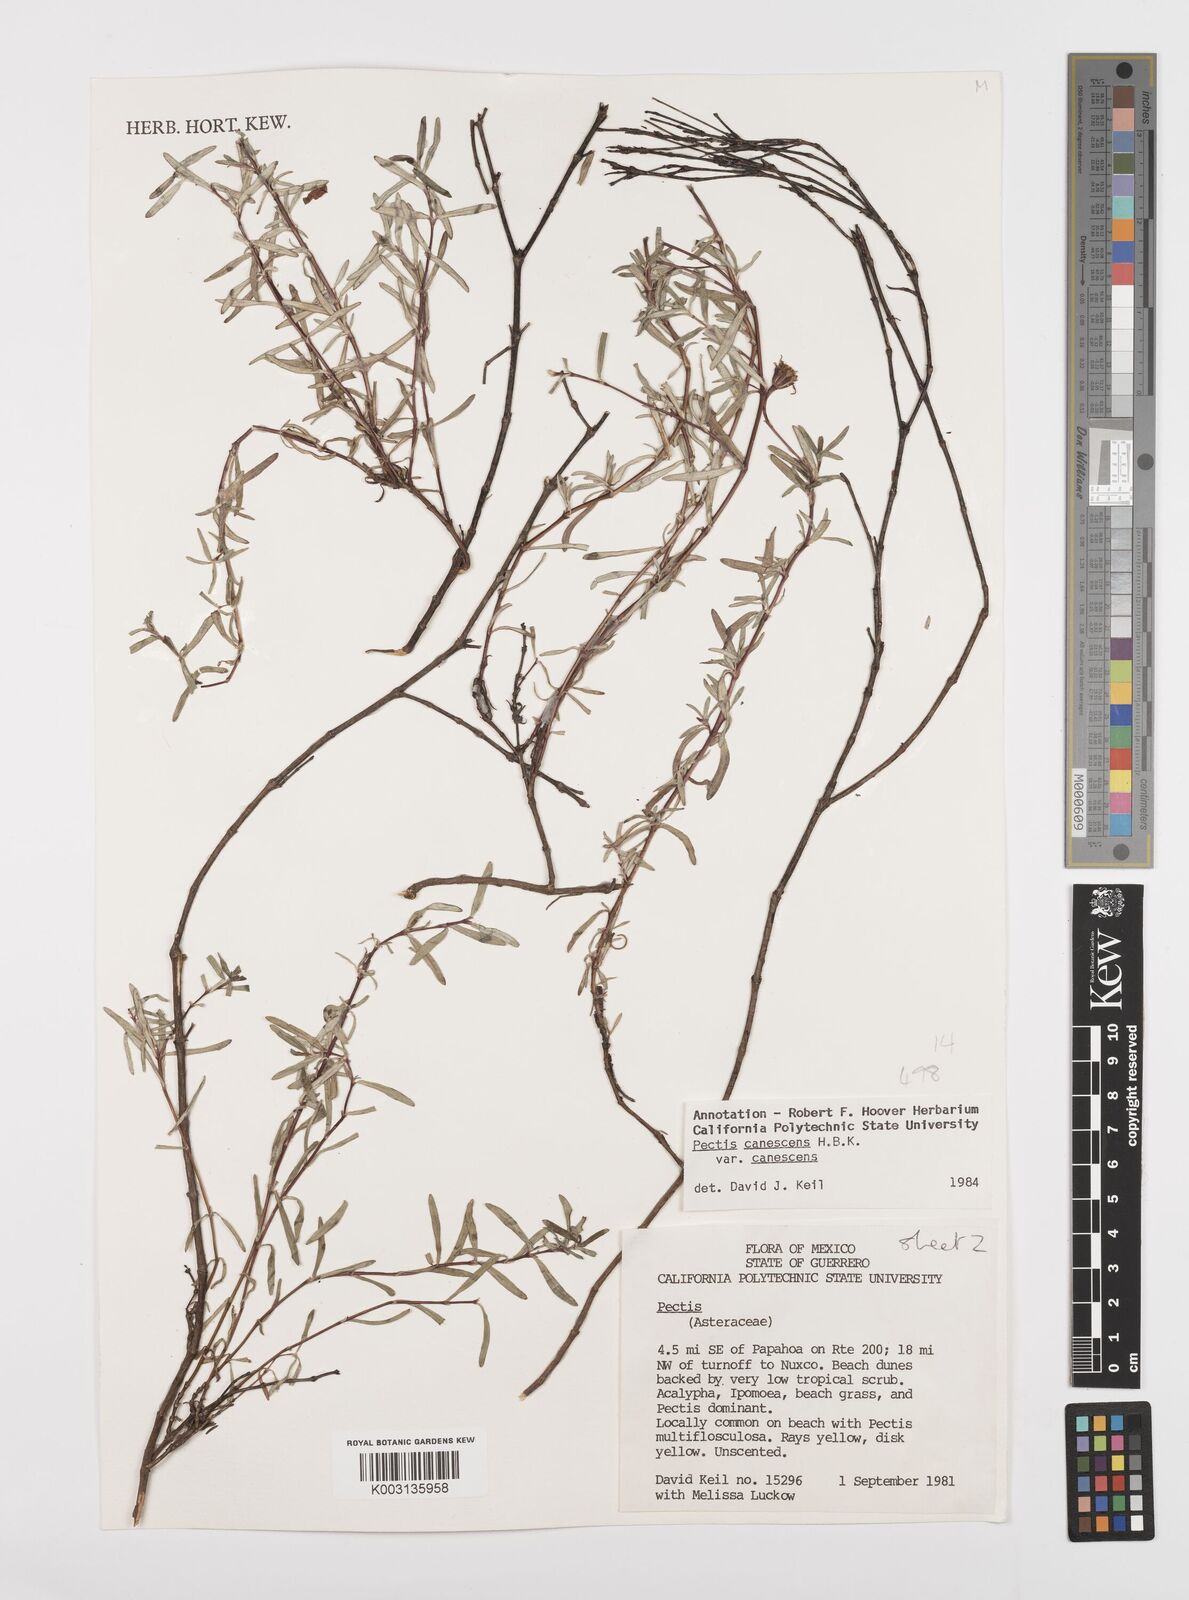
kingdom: Plantae
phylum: Tracheophyta
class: Magnoliopsida
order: Asterales
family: Asteraceae
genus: Pectis
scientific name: Pectis canescens
